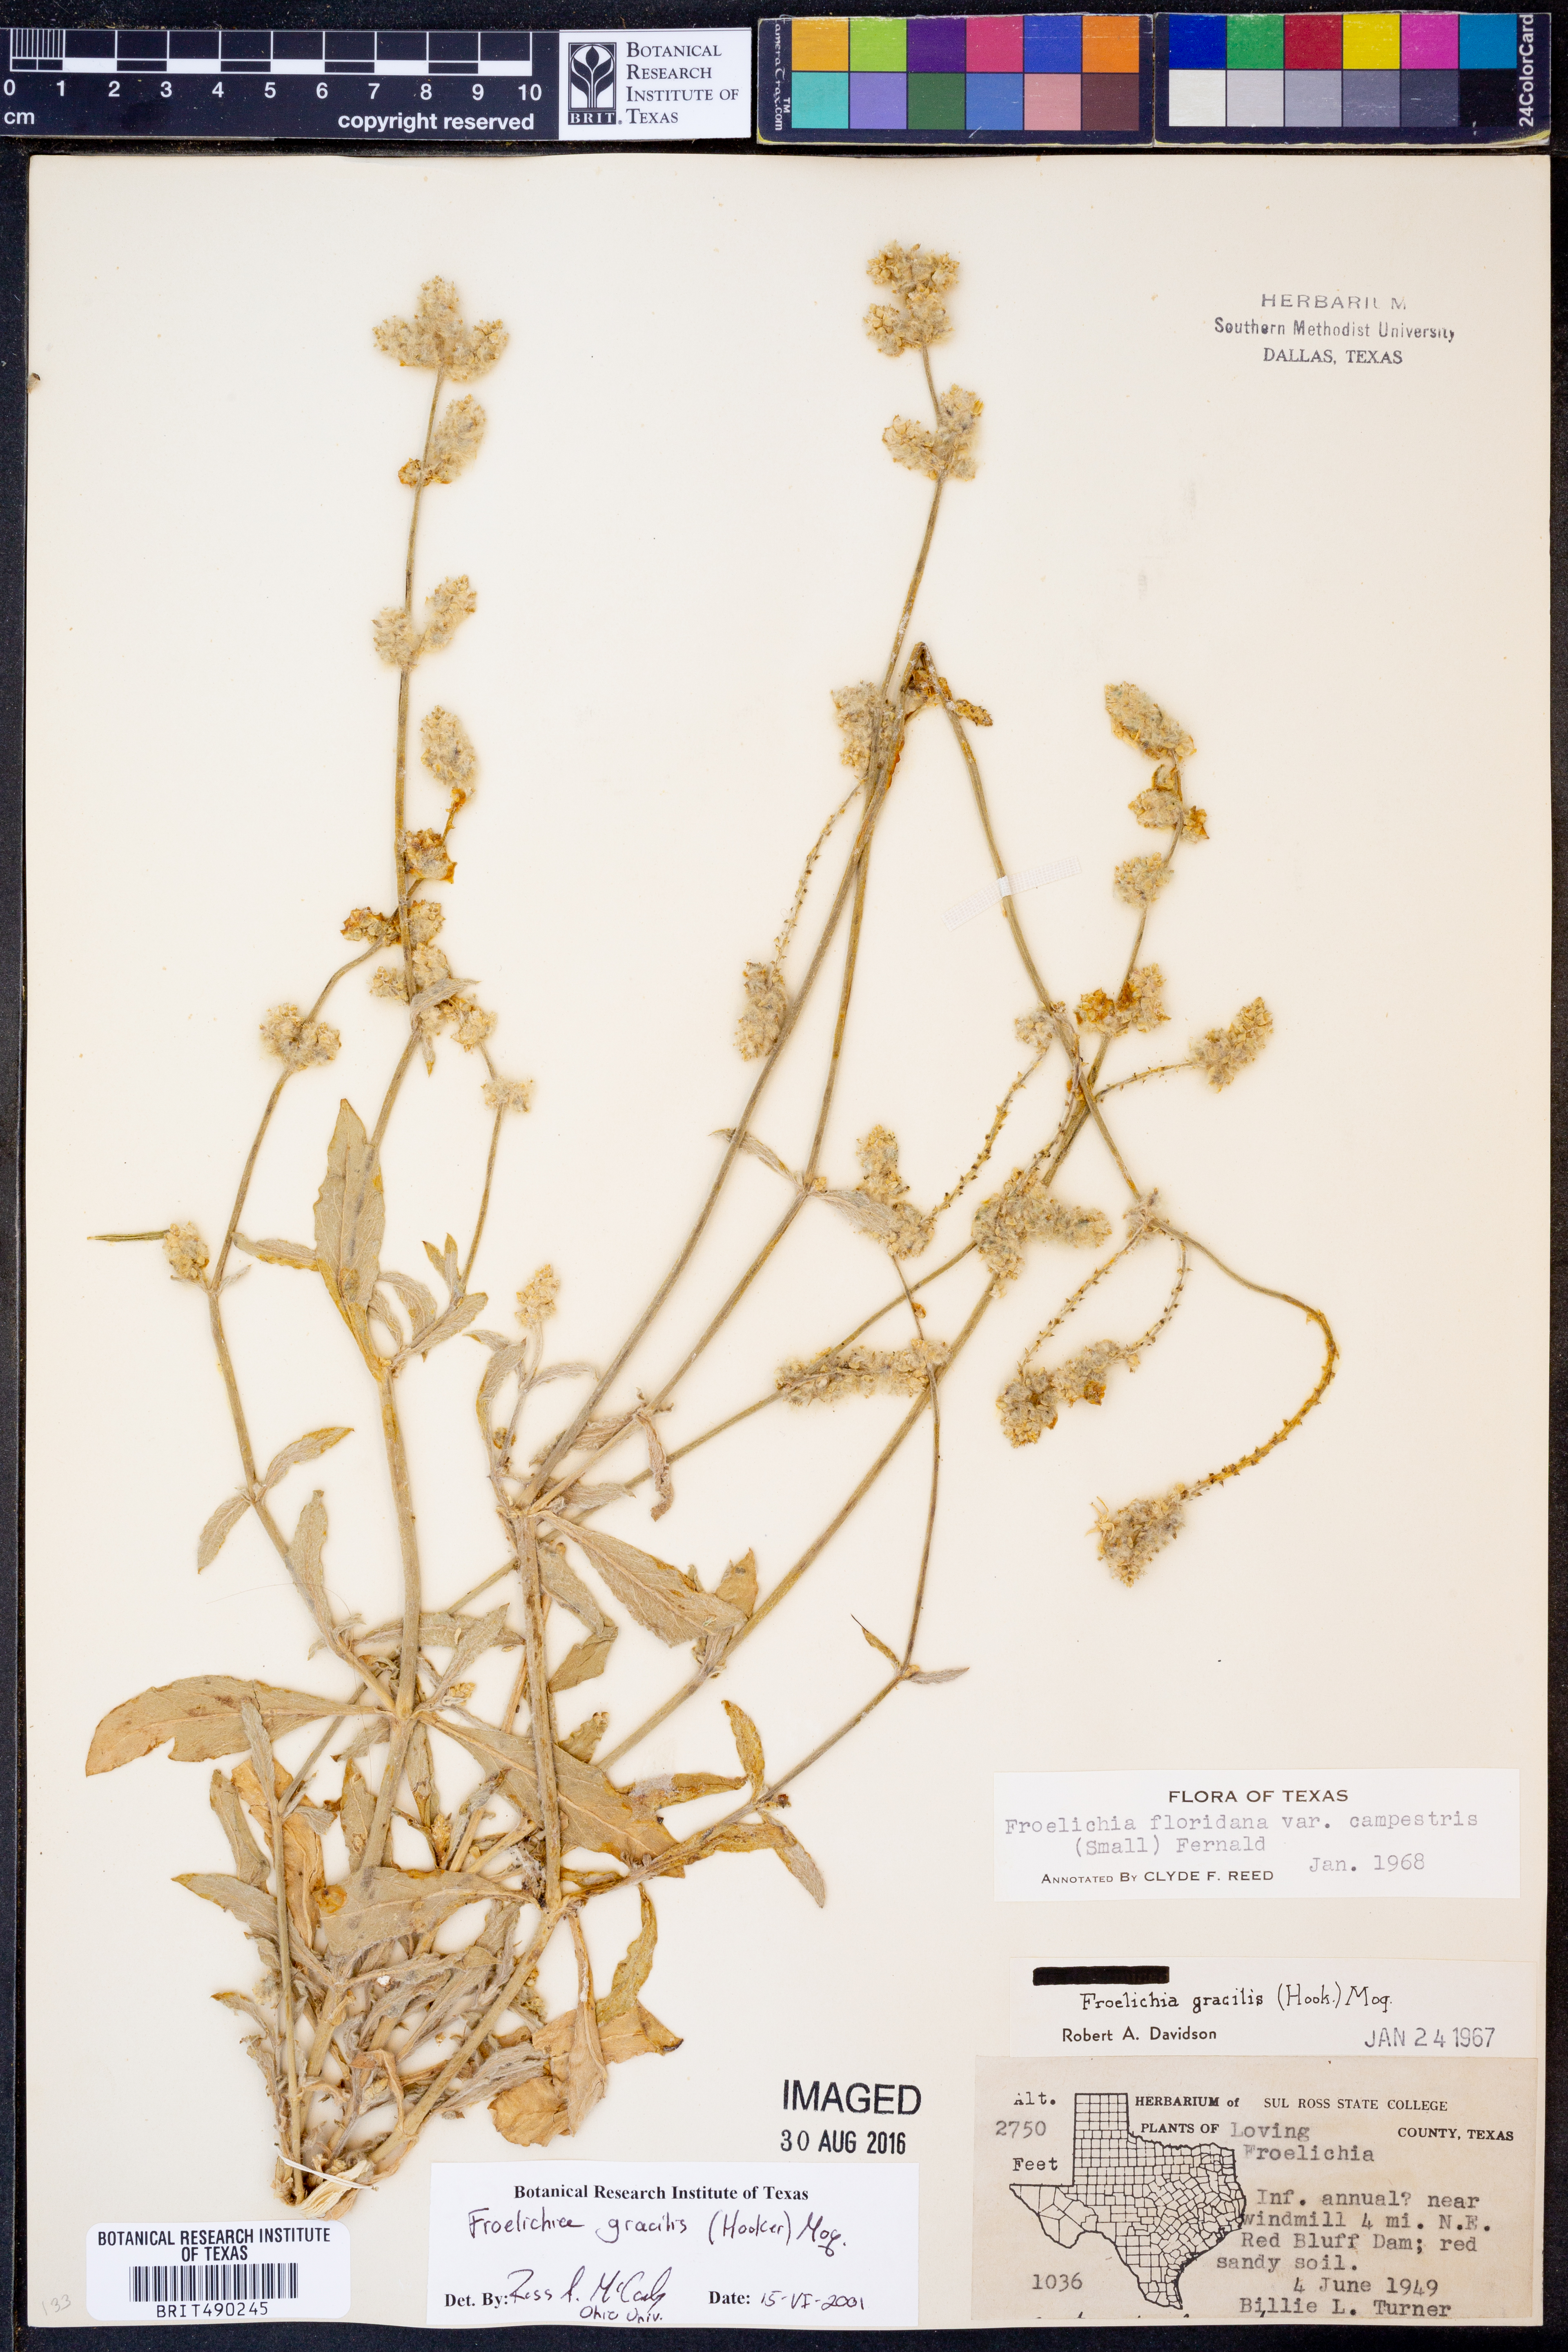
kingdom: Plantae
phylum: Tracheophyta
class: Magnoliopsida
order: Caryophyllales
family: Amaranthaceae
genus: Froelichia
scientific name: Froelichia gracilis
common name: Slender cottonweed
